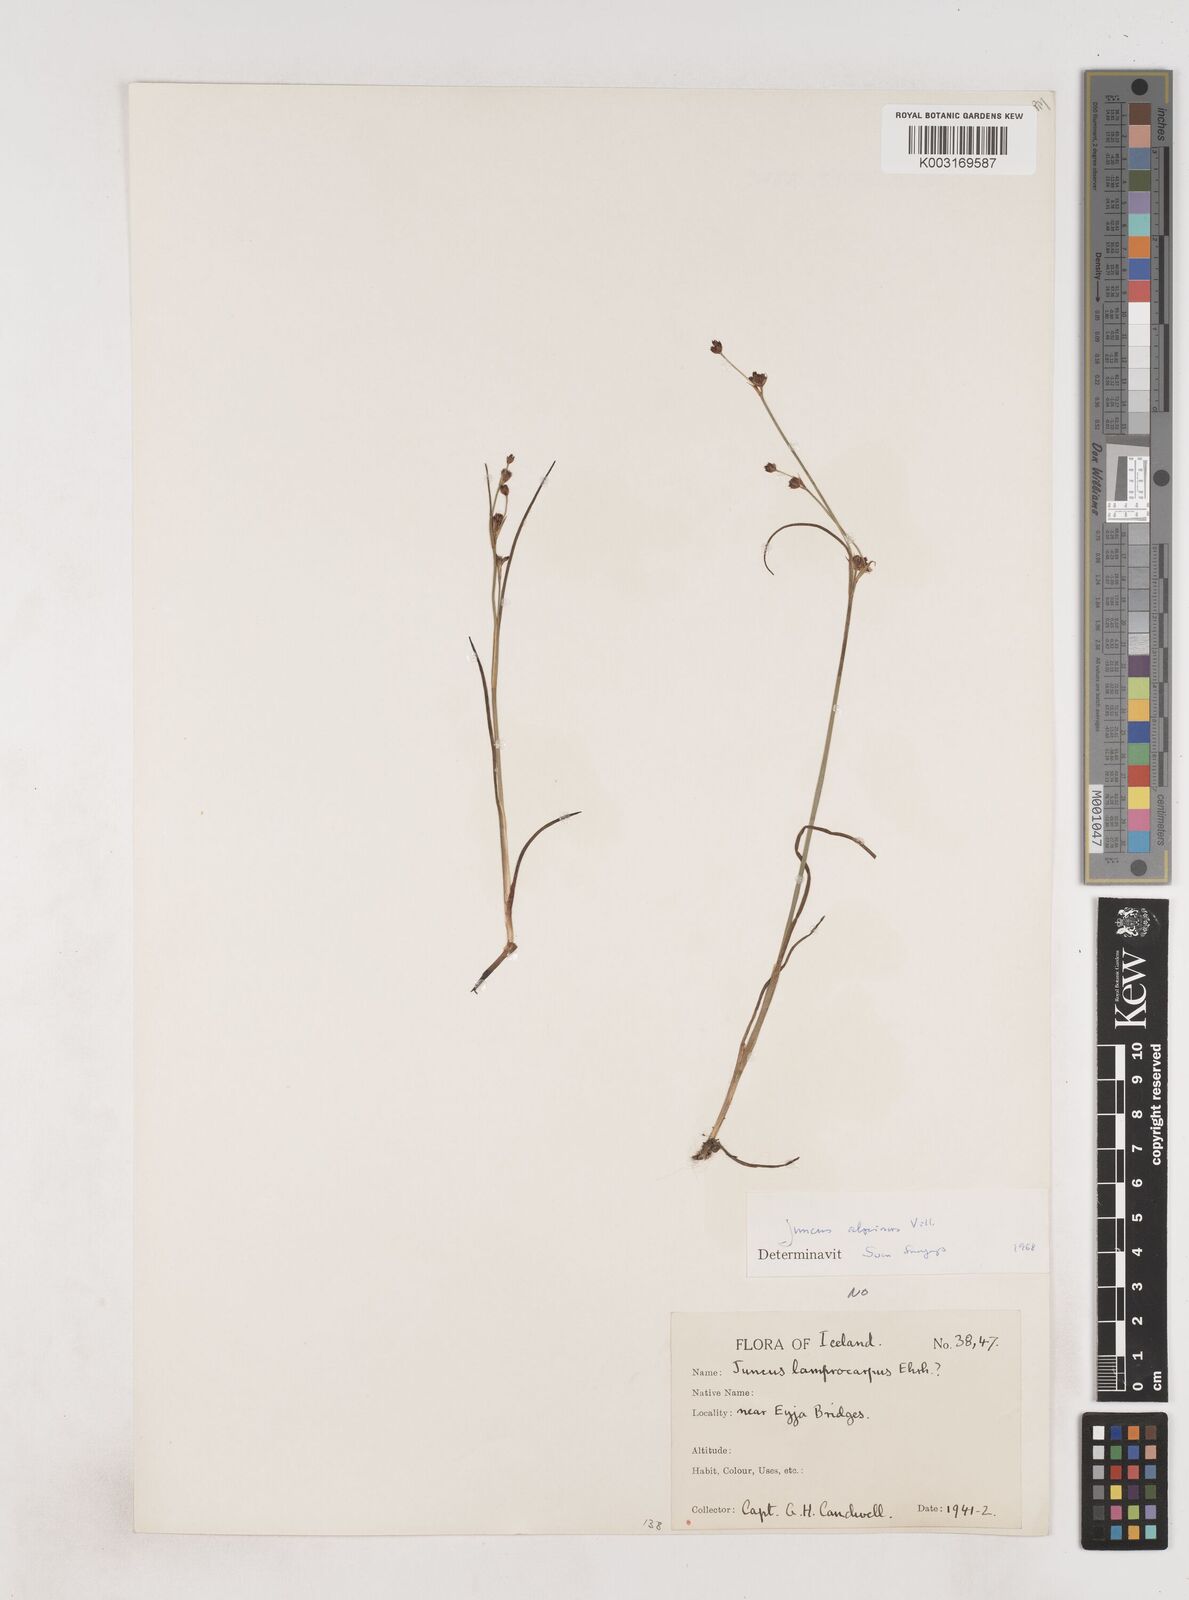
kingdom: Plantae
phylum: Tracheophyta
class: Liliopsida
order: Poales
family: Juncaceae
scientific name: Juncaceae
